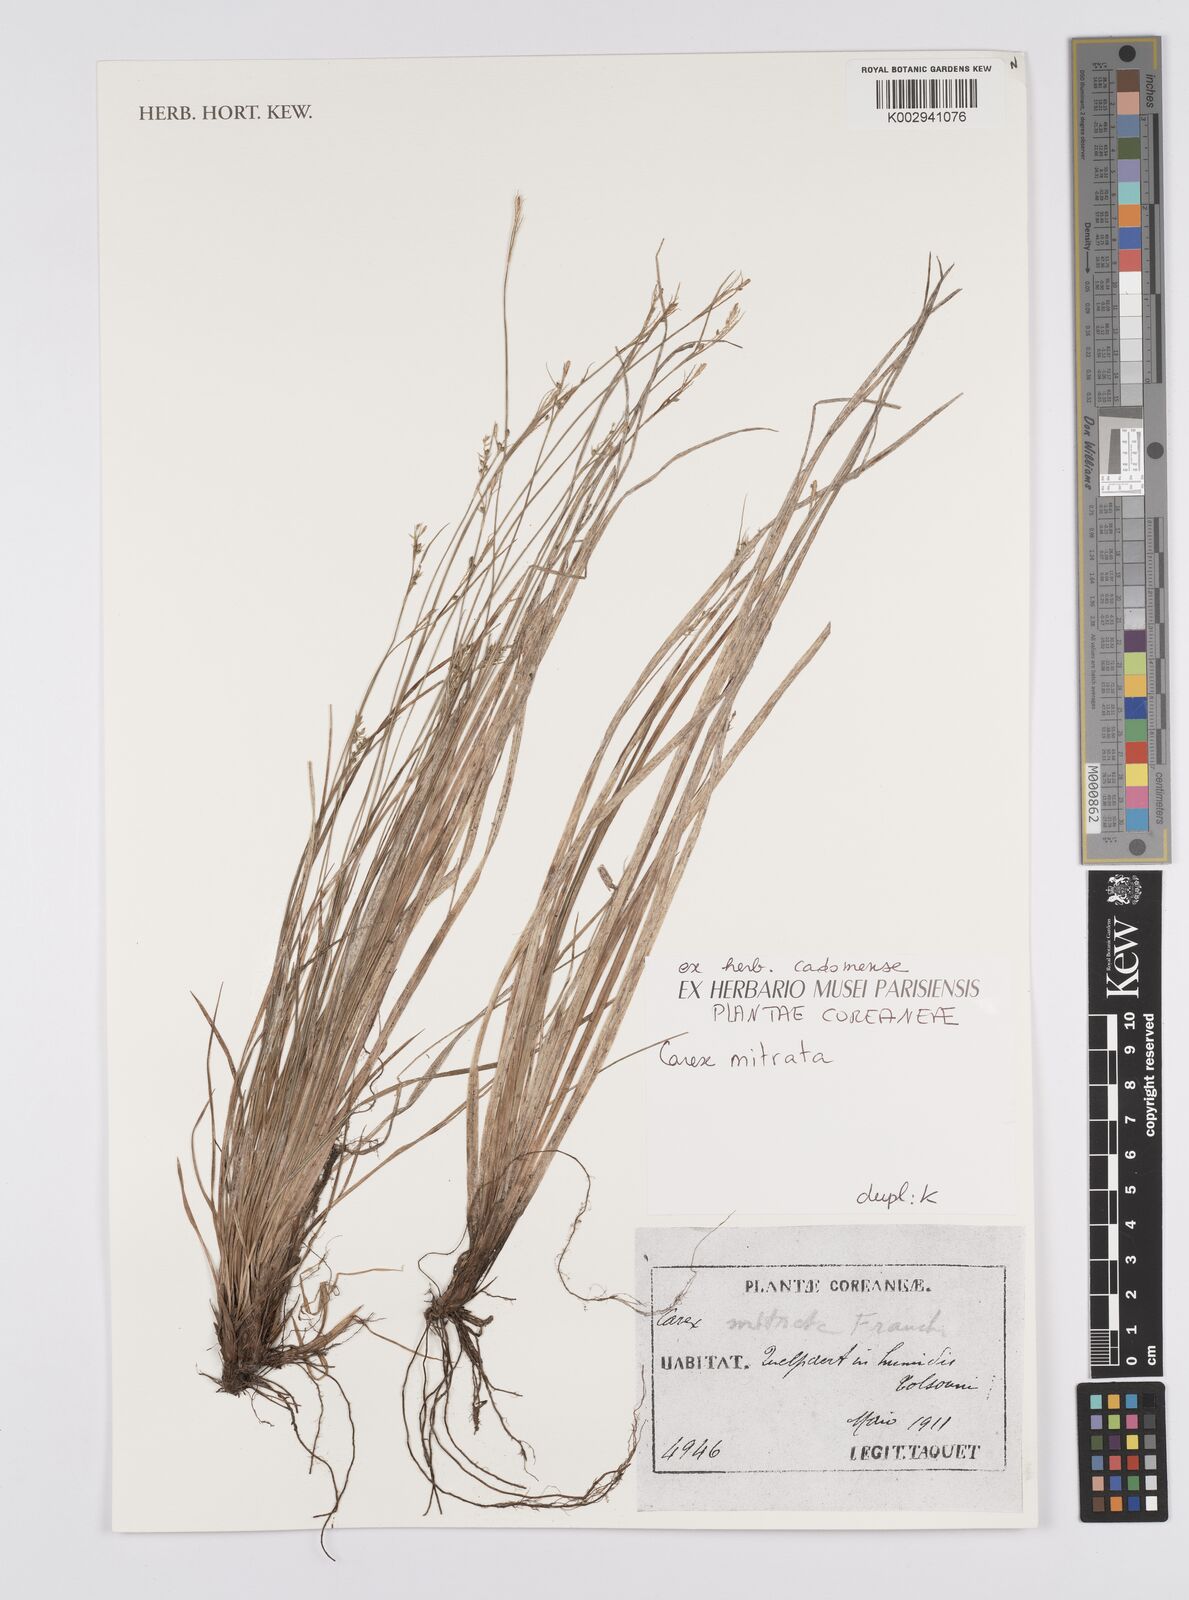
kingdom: Plantae
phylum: Tracheophyta
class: Liliopsida
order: Poales
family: Cyperaceae
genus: Carex
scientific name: Carex mitrata
